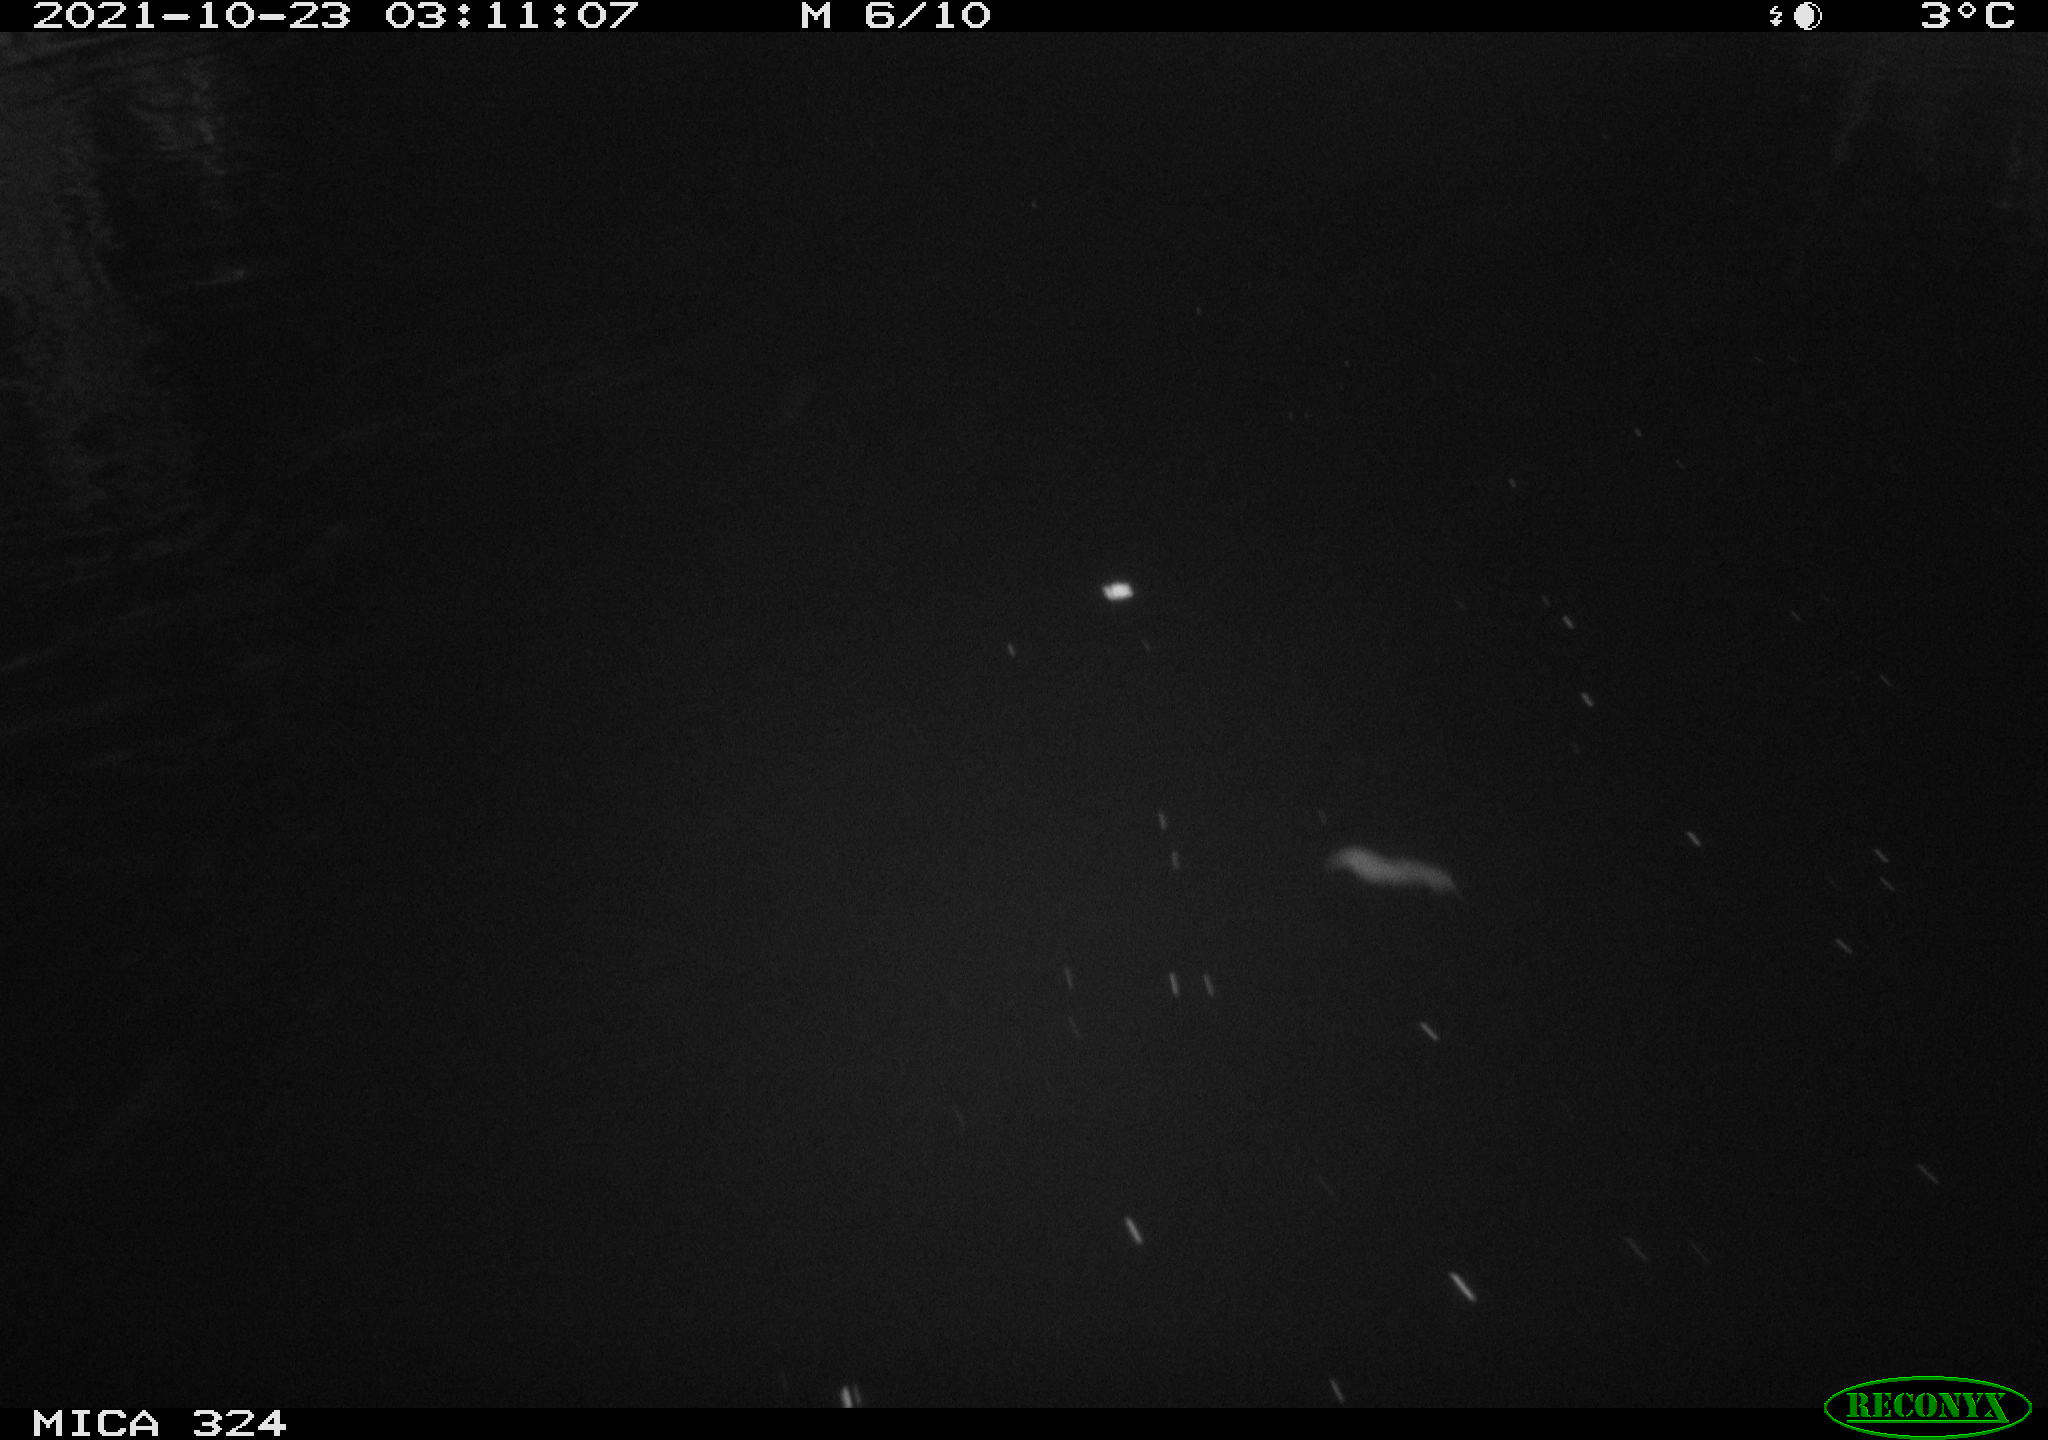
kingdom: Animalia
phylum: Chordata
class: Mammalia
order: Rodentia
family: Cricetidae
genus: Ondatra
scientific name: Ondatra zibethicus
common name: Muskrat
